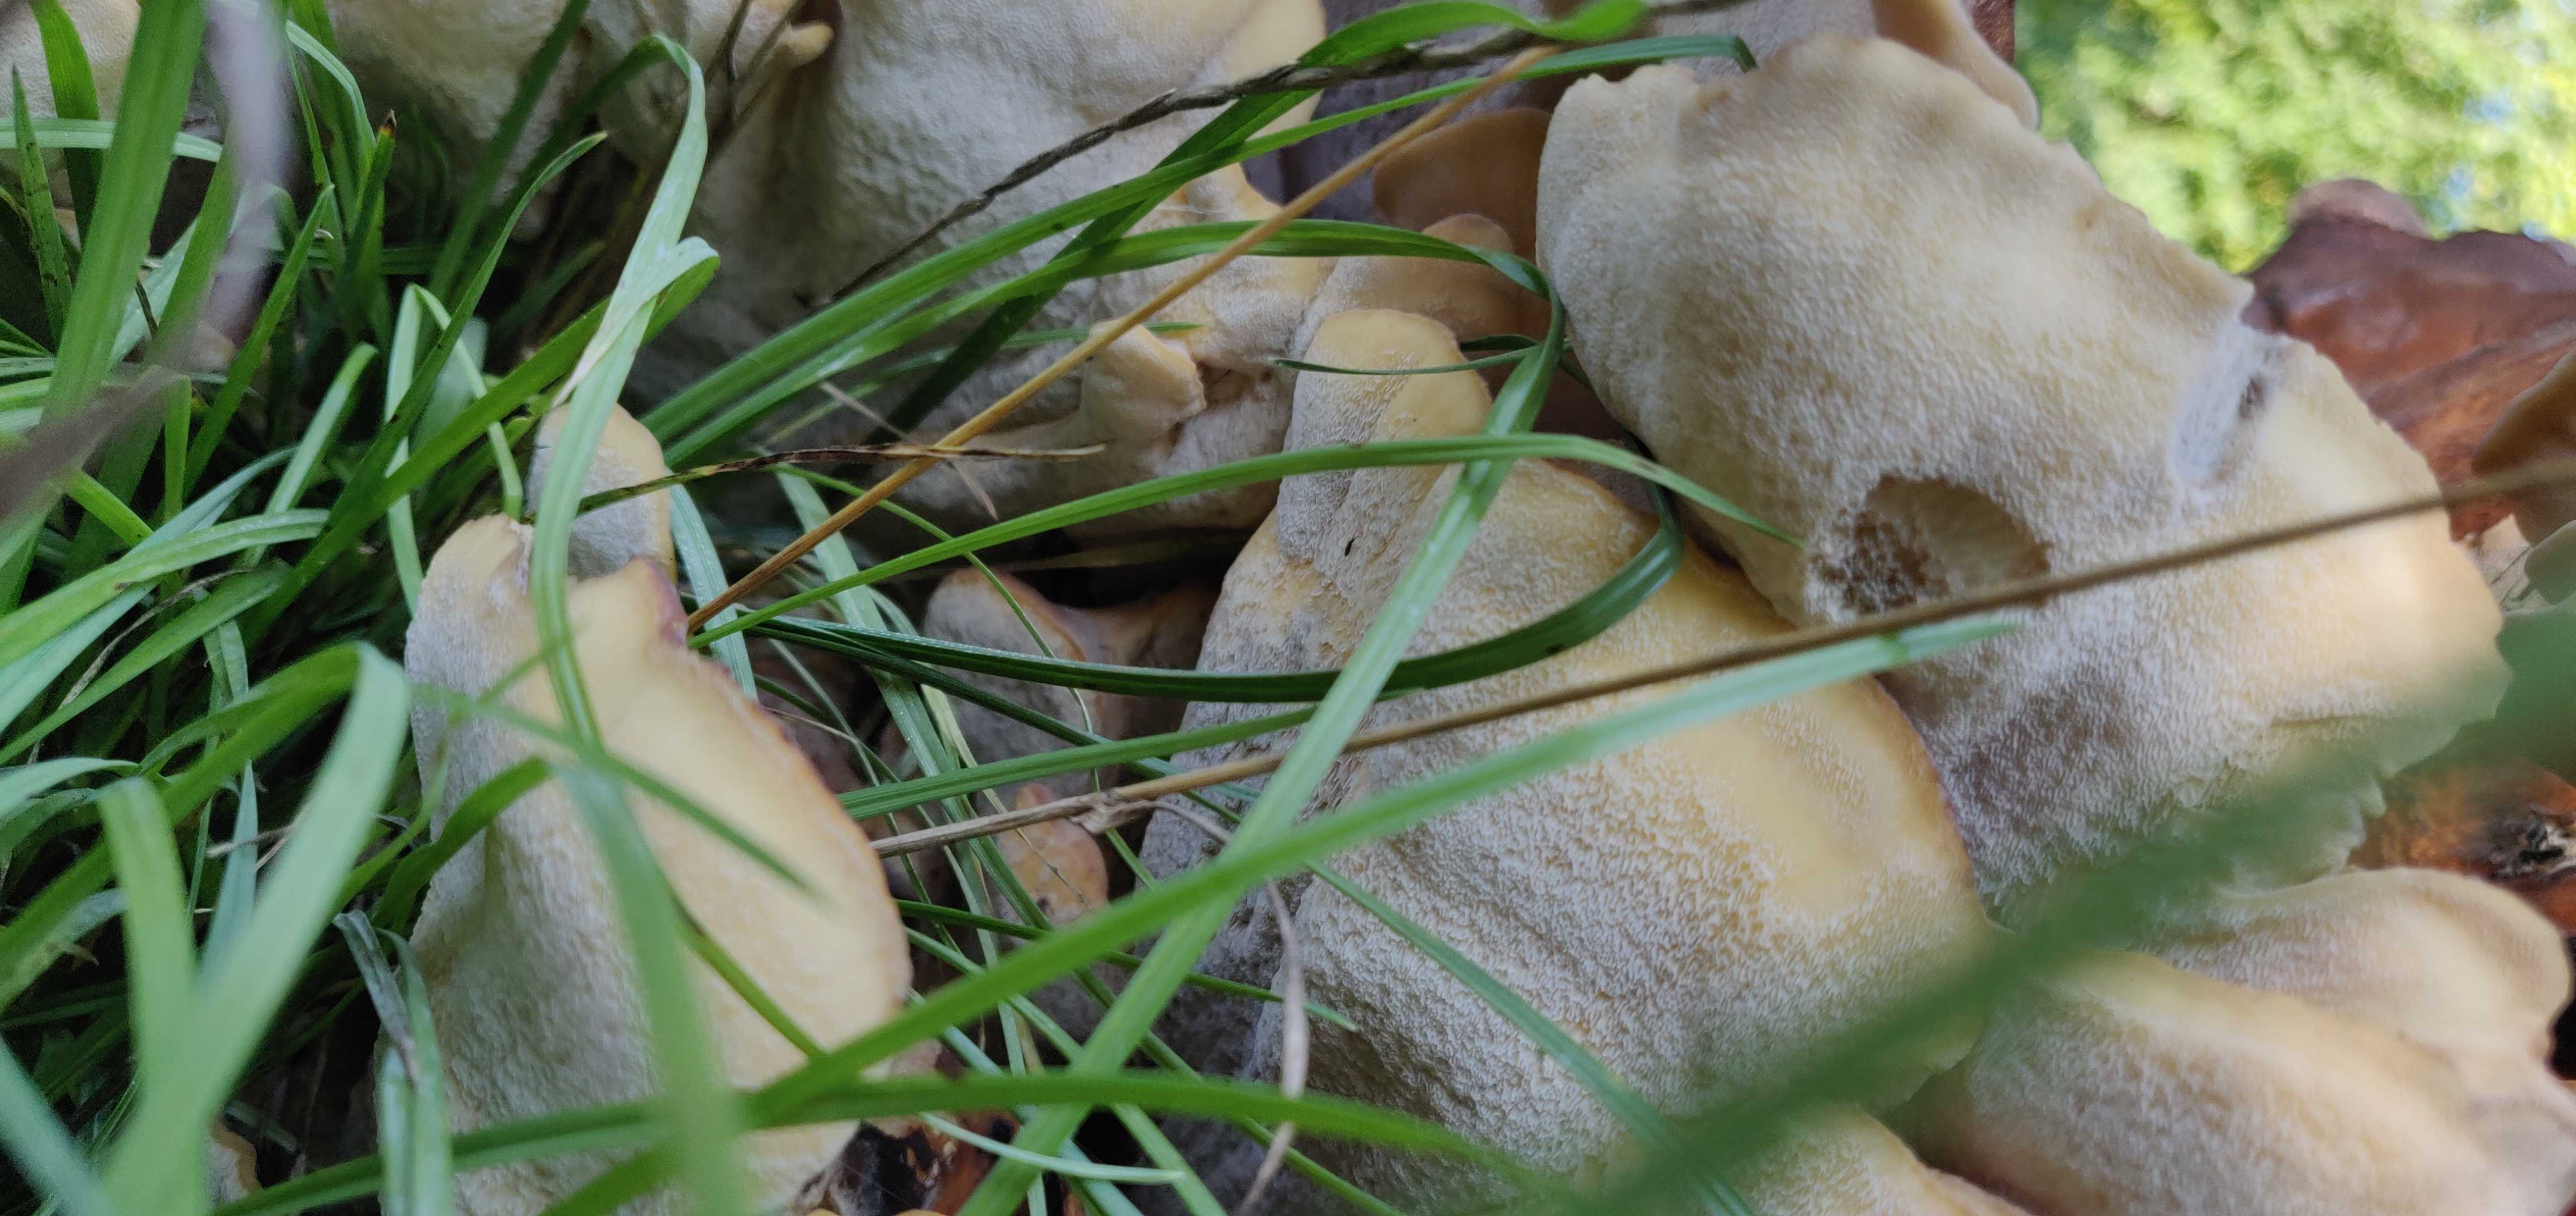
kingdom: Fungi
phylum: Basidiomycota
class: Agaricomycetes
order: Polyporales
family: Meripilaceae
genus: Meripilus
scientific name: Meripilus giganteus
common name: kæmpeporesvamp
